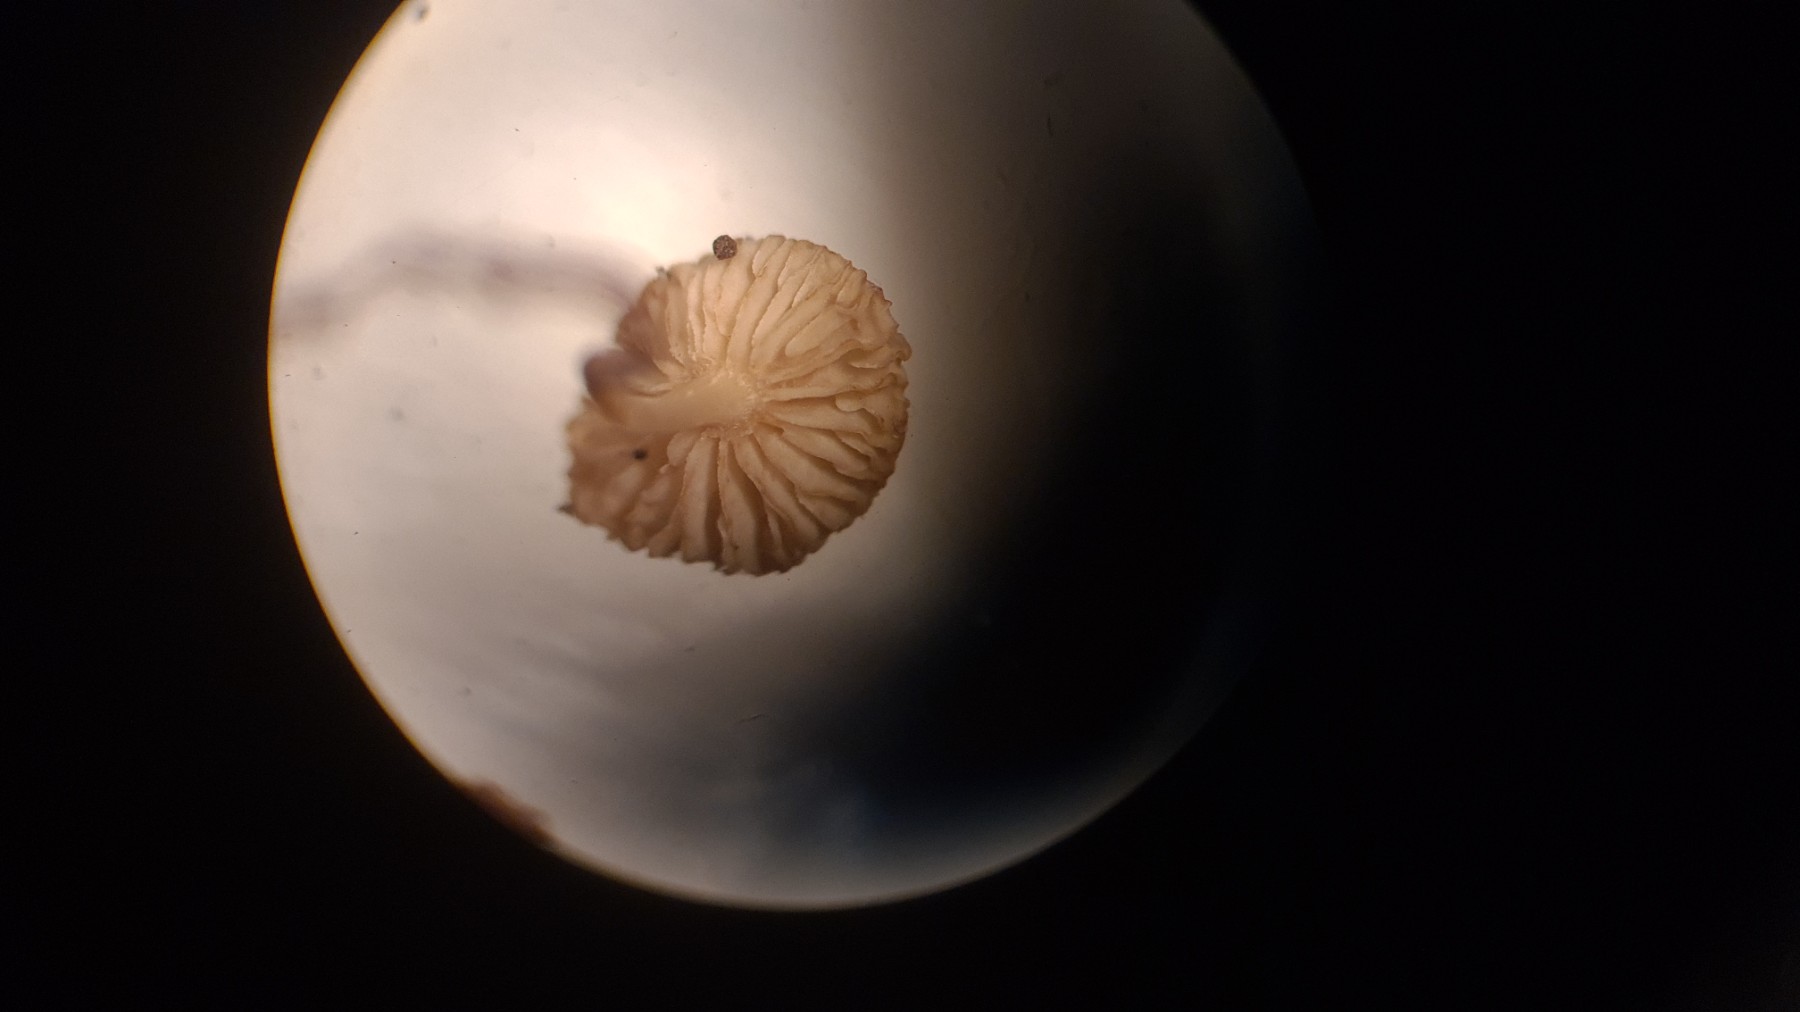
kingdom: Fungi
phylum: Basidiomycota
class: Agaricomycetes
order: Agaricales
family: Omphalotaceae
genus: Collybiopsis
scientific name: Collybiopsis ramealis
